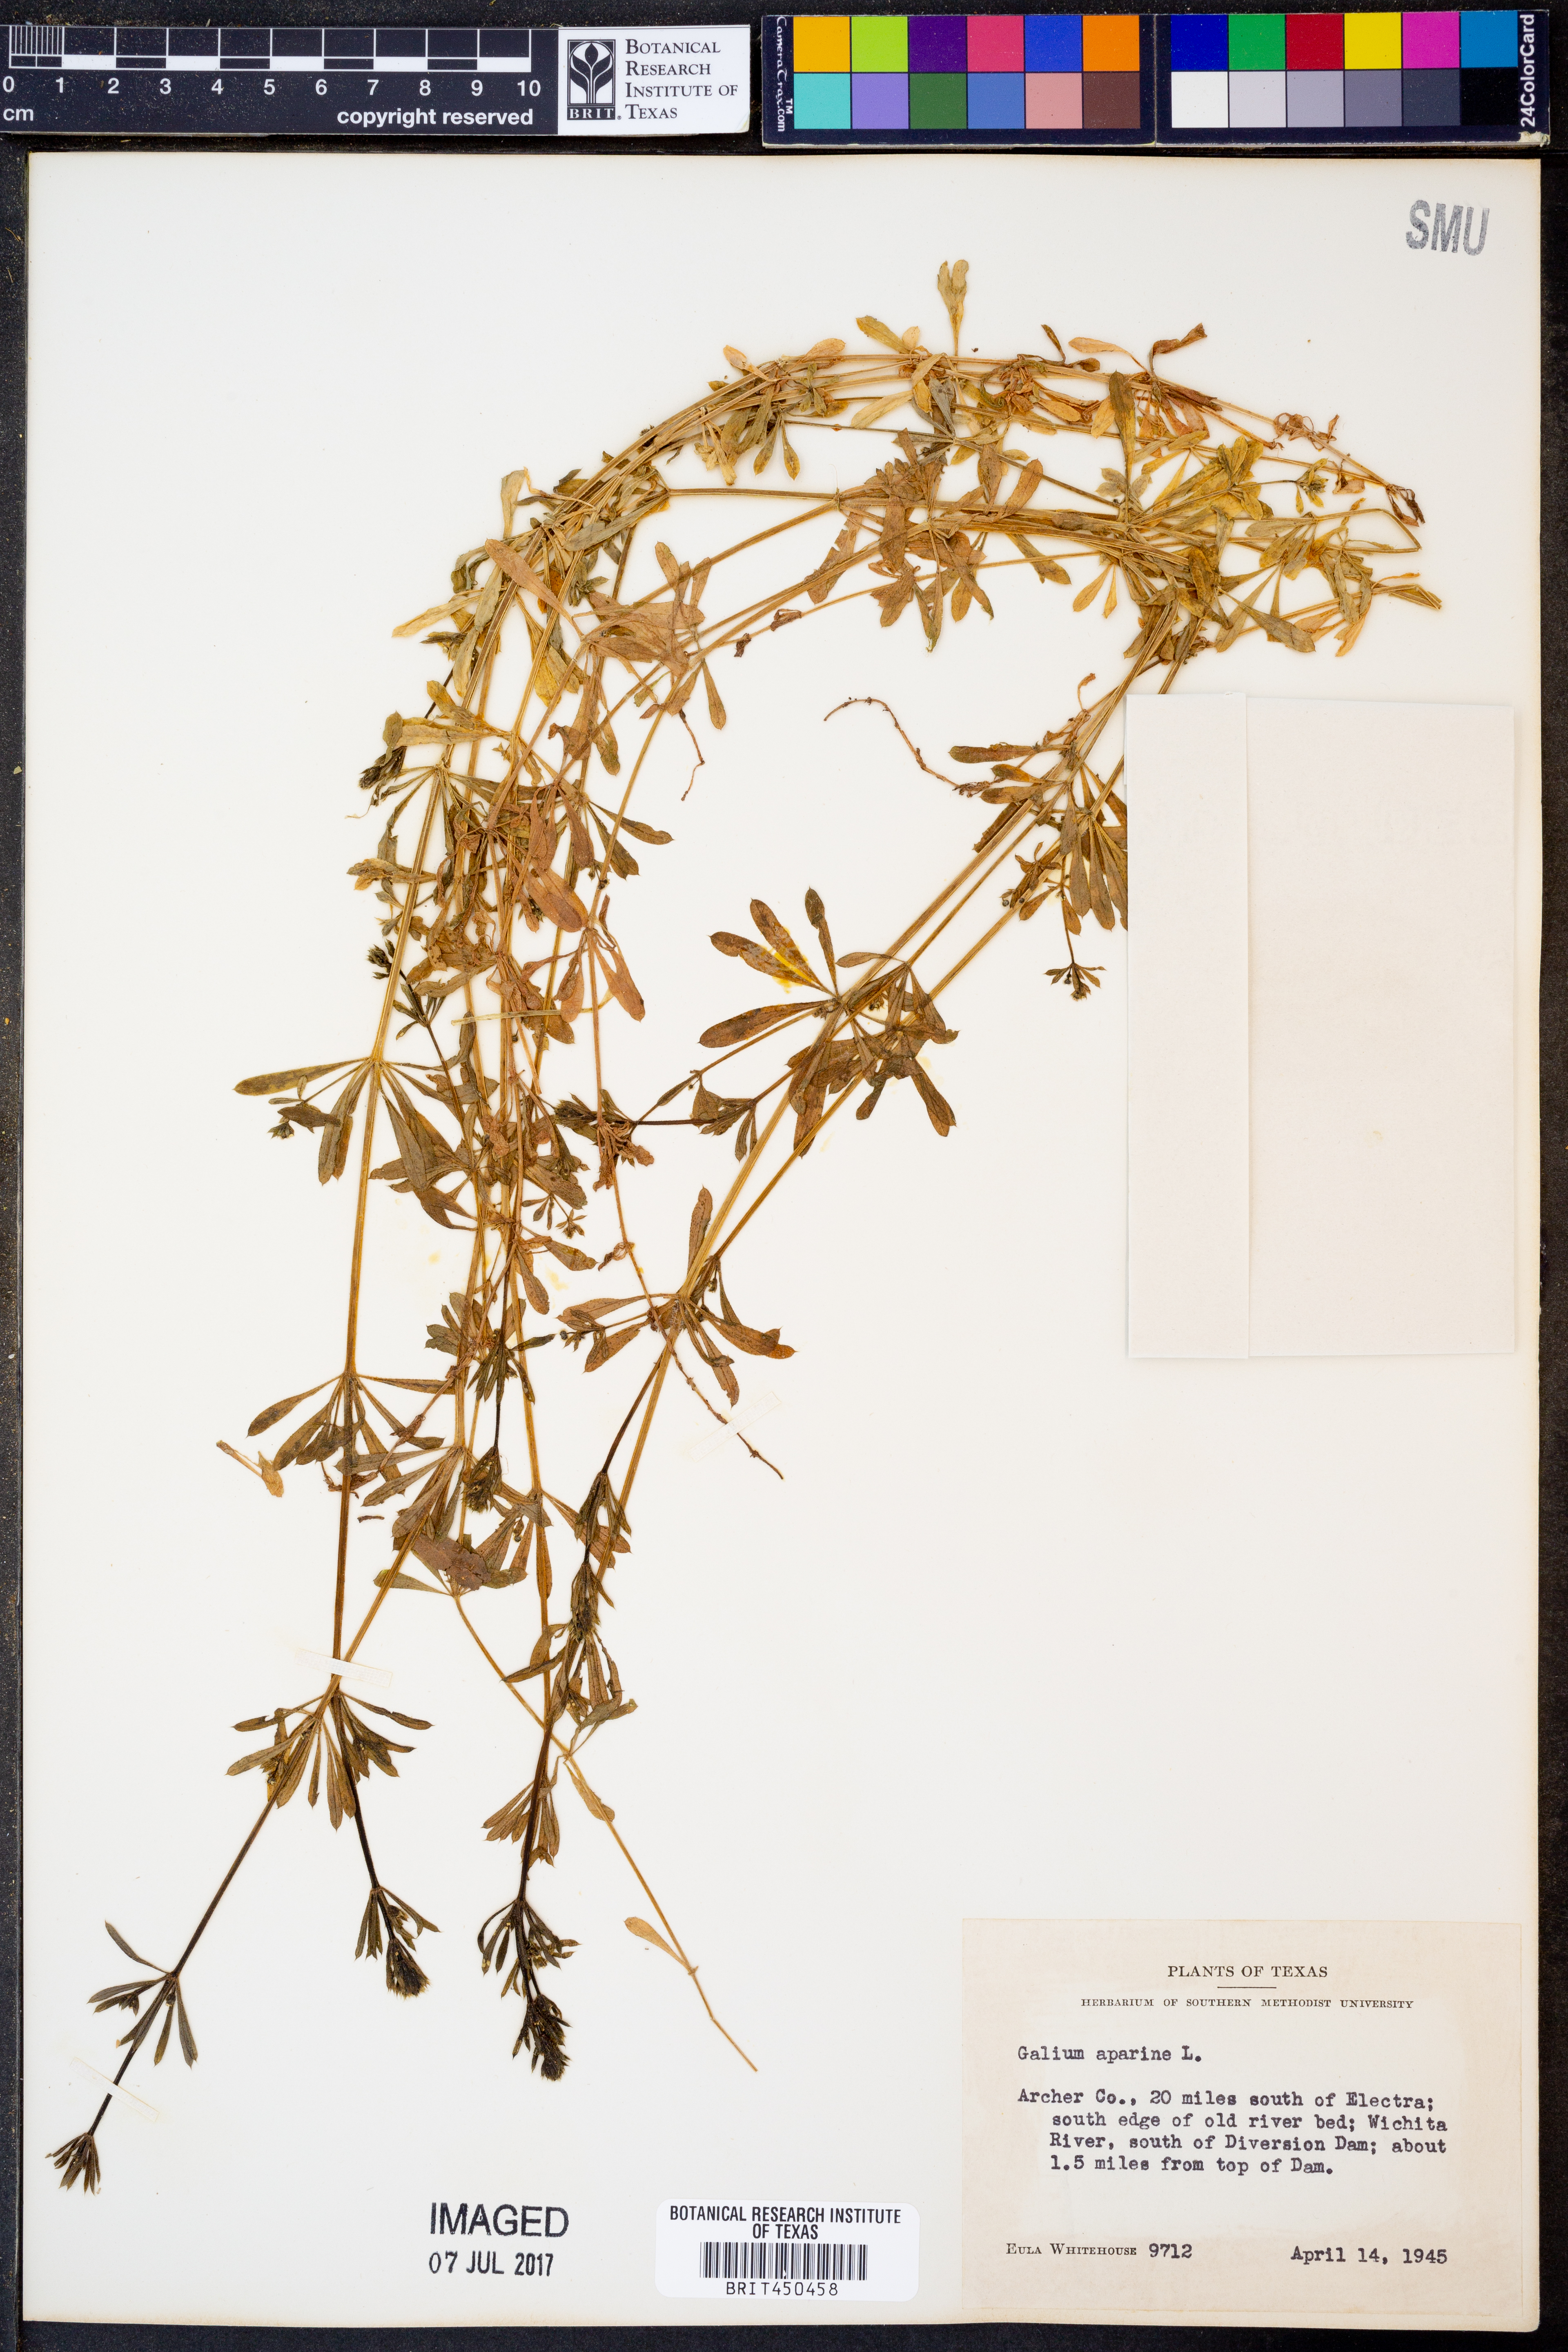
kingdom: Plantae
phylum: Tracheophyta
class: Magnoliopsida
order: Gentianales
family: Rubiaceae
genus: Galium
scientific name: Galium aparine
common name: Cleavers
